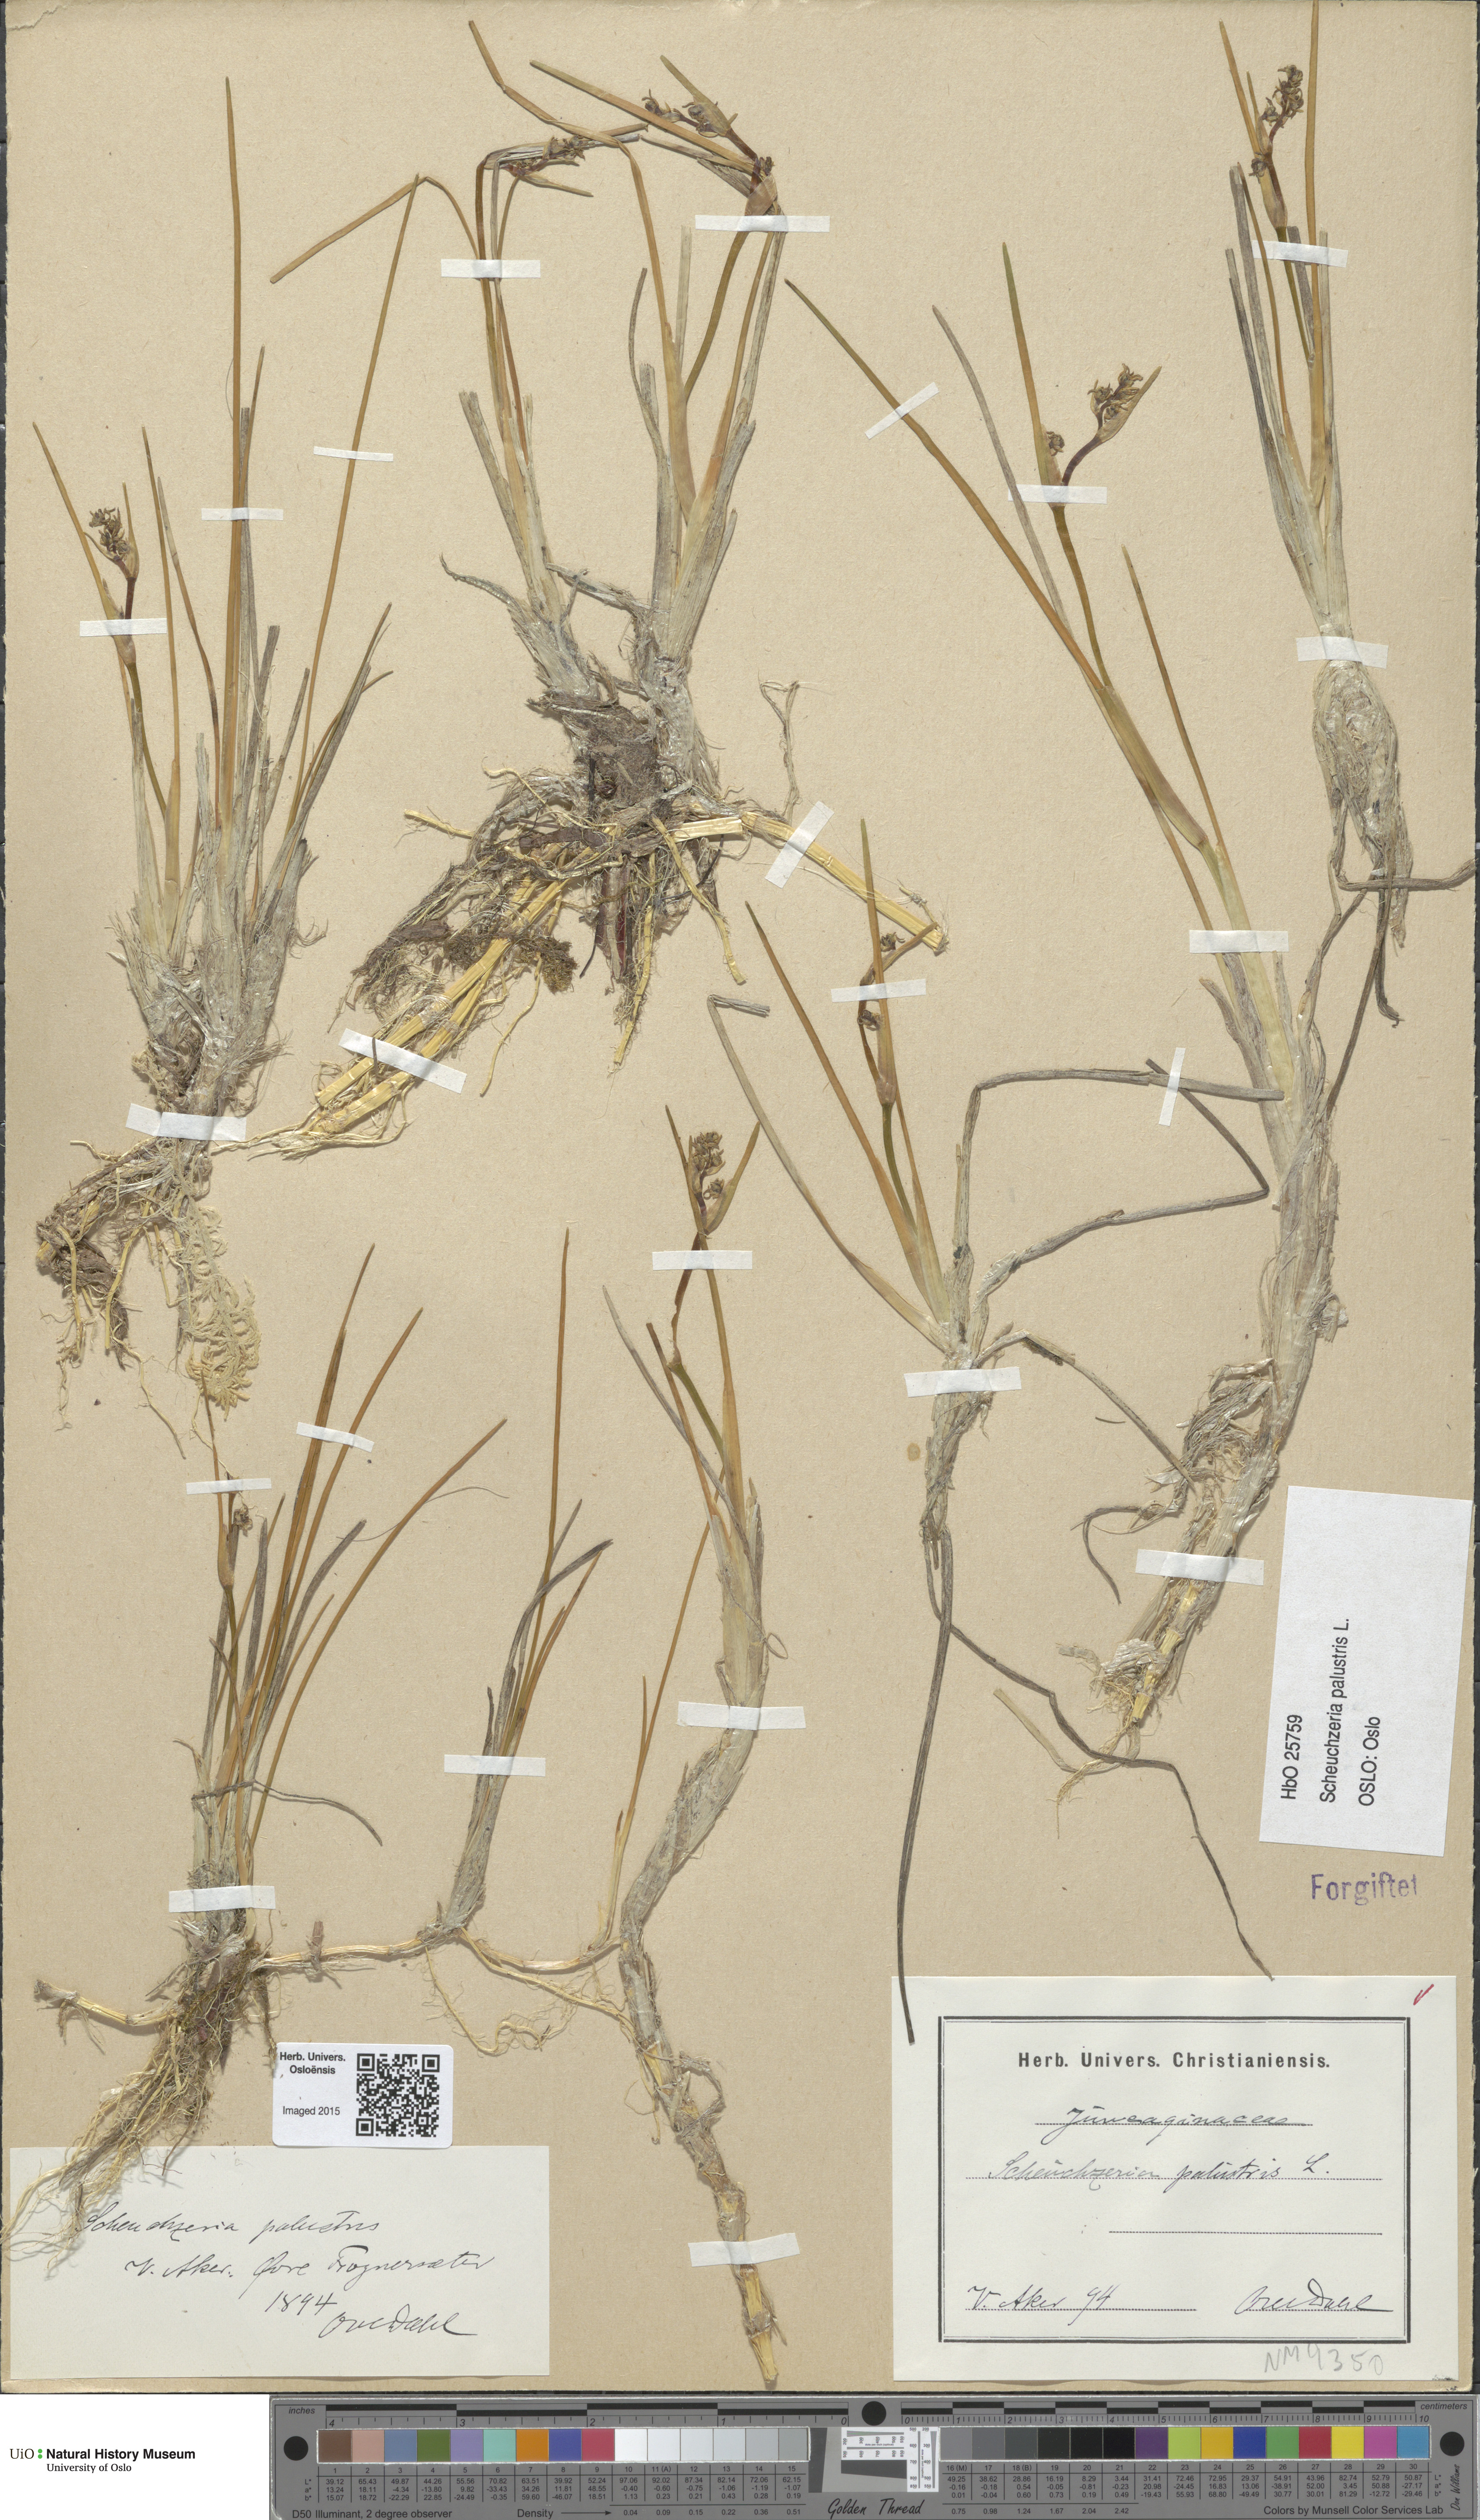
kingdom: Plantae
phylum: Tracheophyta
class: Liliopsida
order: Alismatales
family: Scheuchzeriaceae
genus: Scheuchzeria
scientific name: Scheuchzeria palustris
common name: Rannoch-rush
